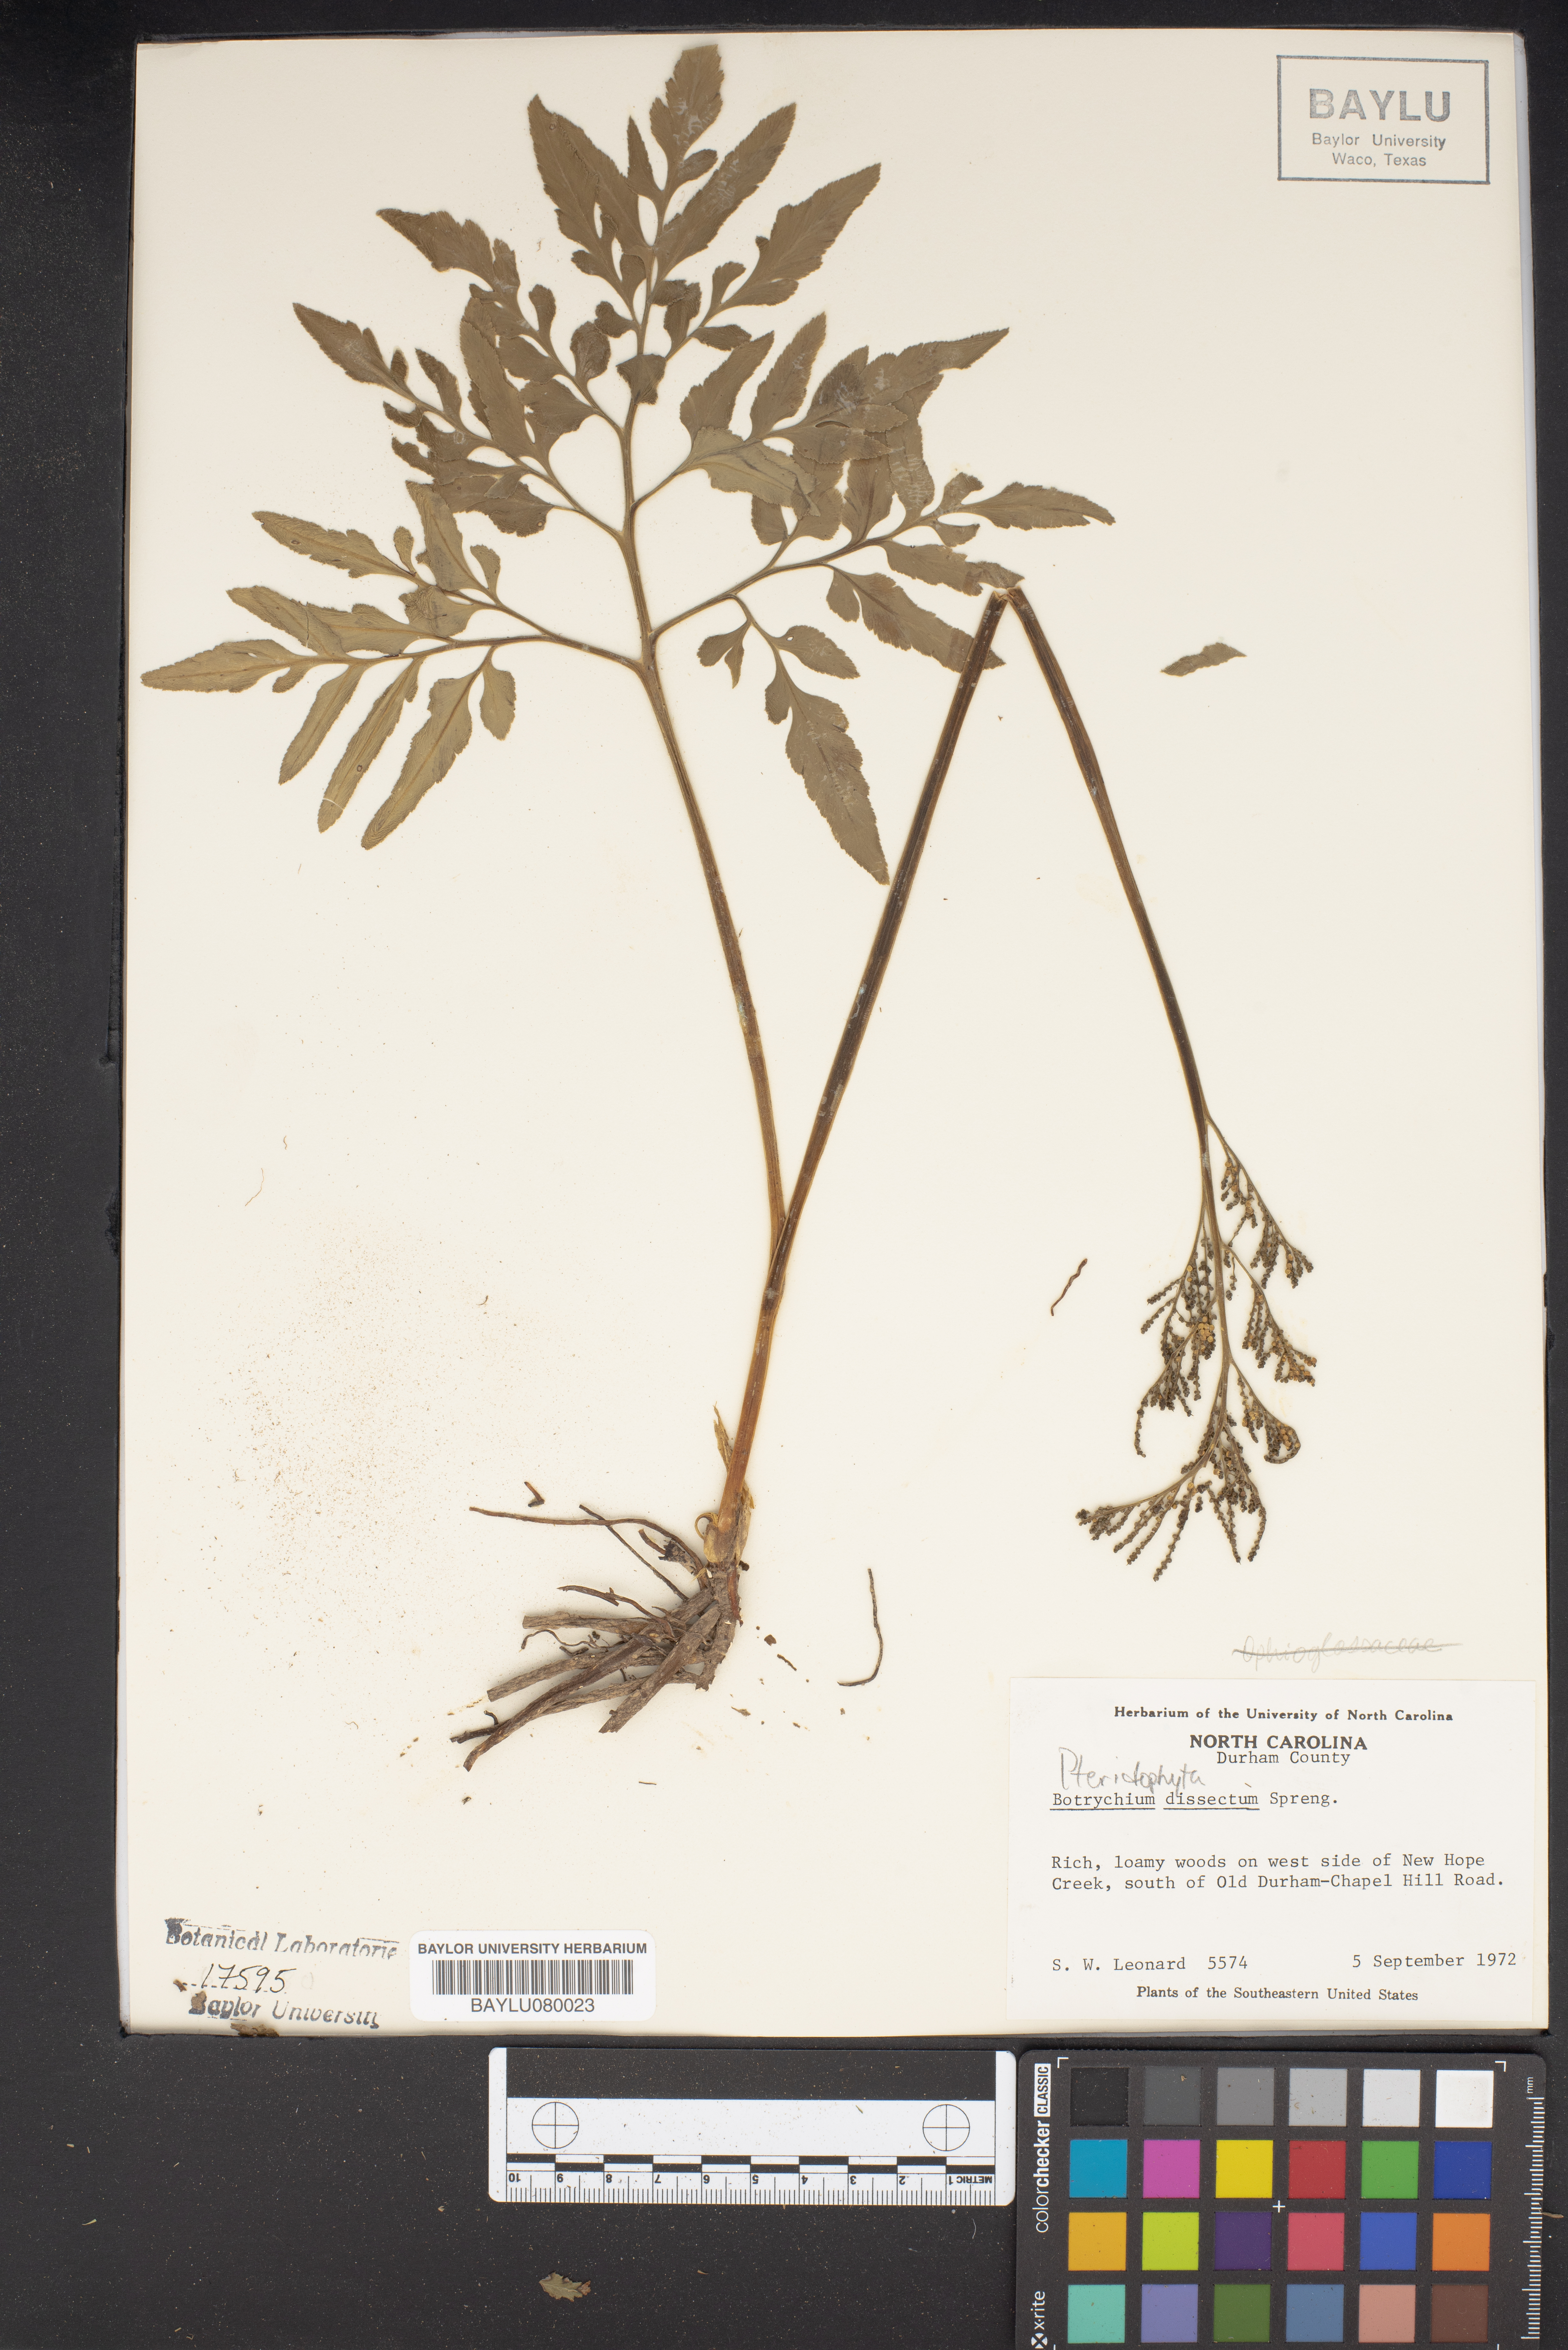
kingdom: Plantae
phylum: Tracheophyta
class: Polypodiopsida
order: Ophioglossales
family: Ophioglossaceae
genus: Sceptridium
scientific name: Sceptridium dissectum
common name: Cut-leaved grapefern
